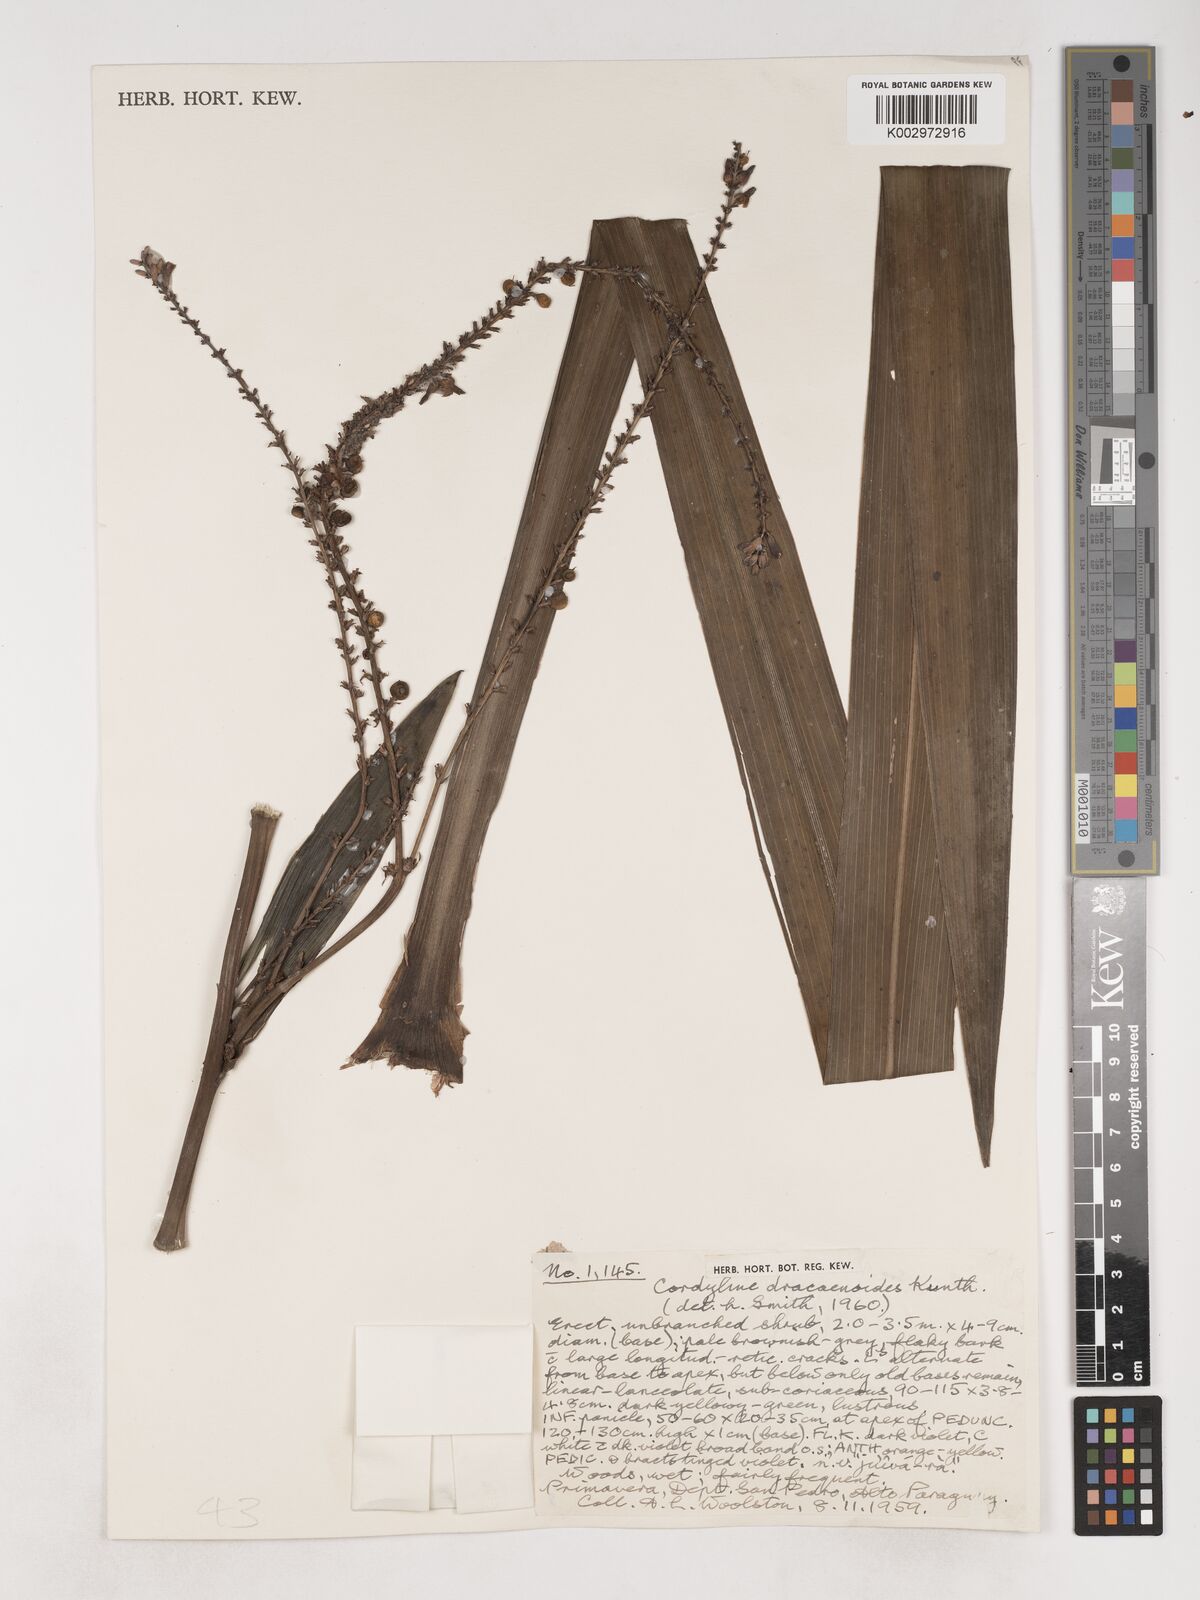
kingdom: Plantae
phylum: Tracheophyta
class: Liliopsida
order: Asparagales
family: Asparagaceae
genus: Cordyline
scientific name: Cordyline congesta
